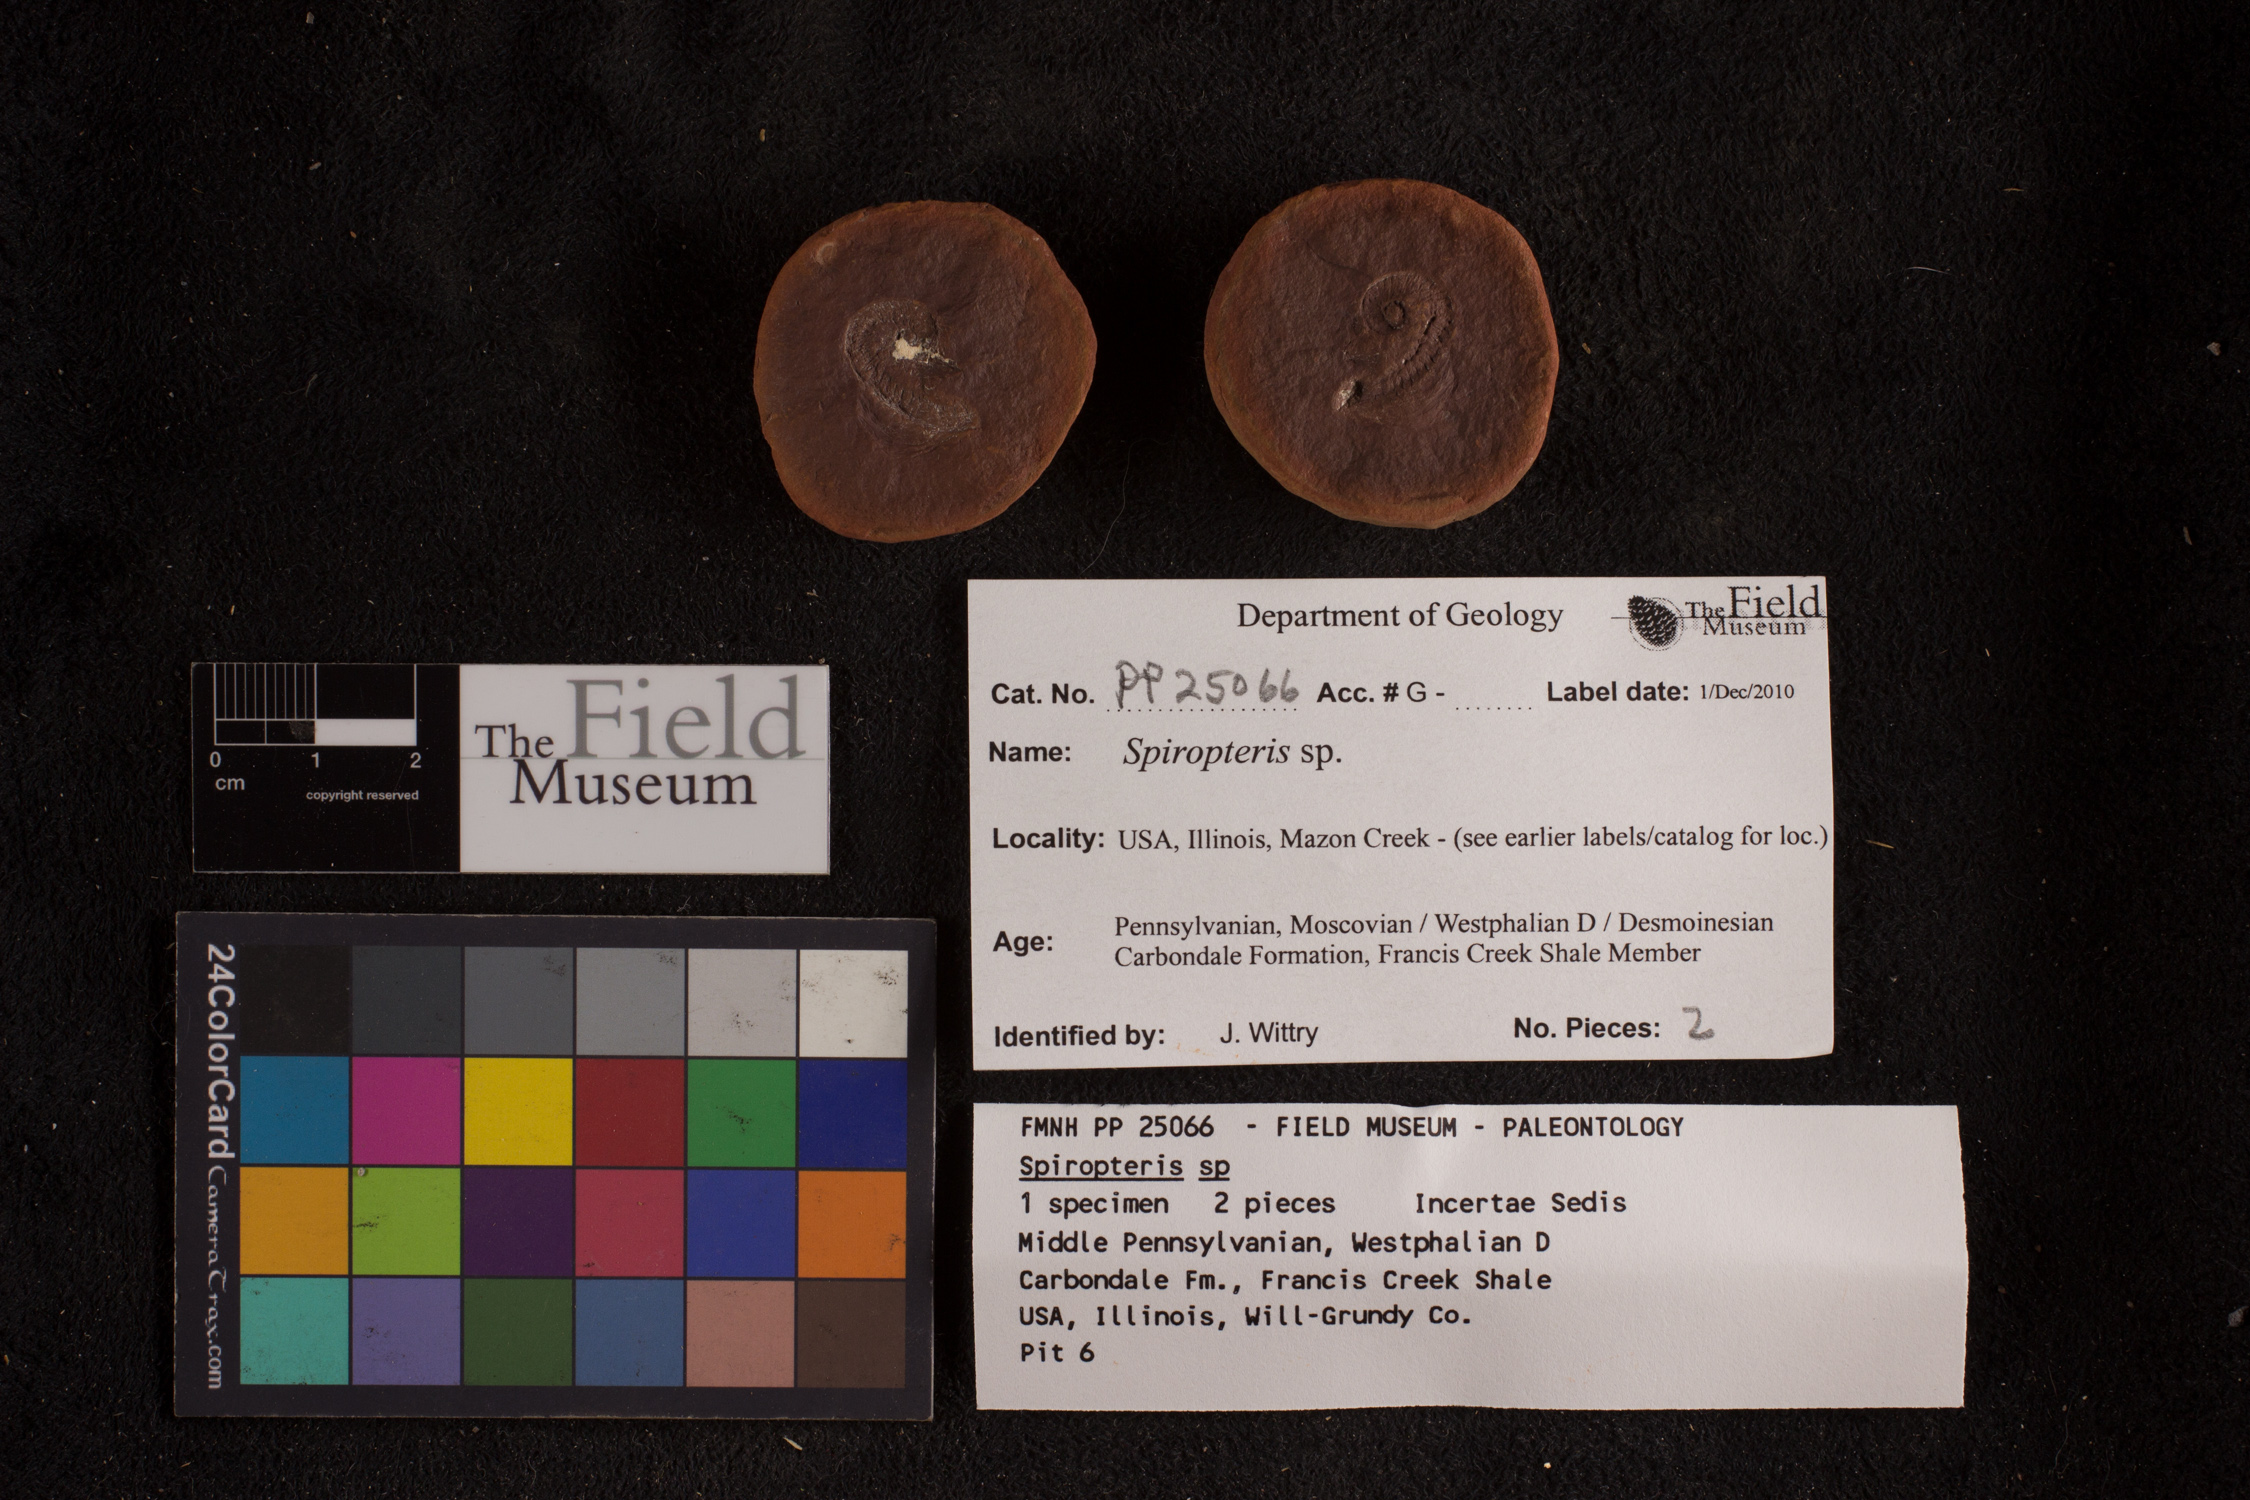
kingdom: Plantae
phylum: Tracheophyta
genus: Spiropteris
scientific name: Spiropteris
